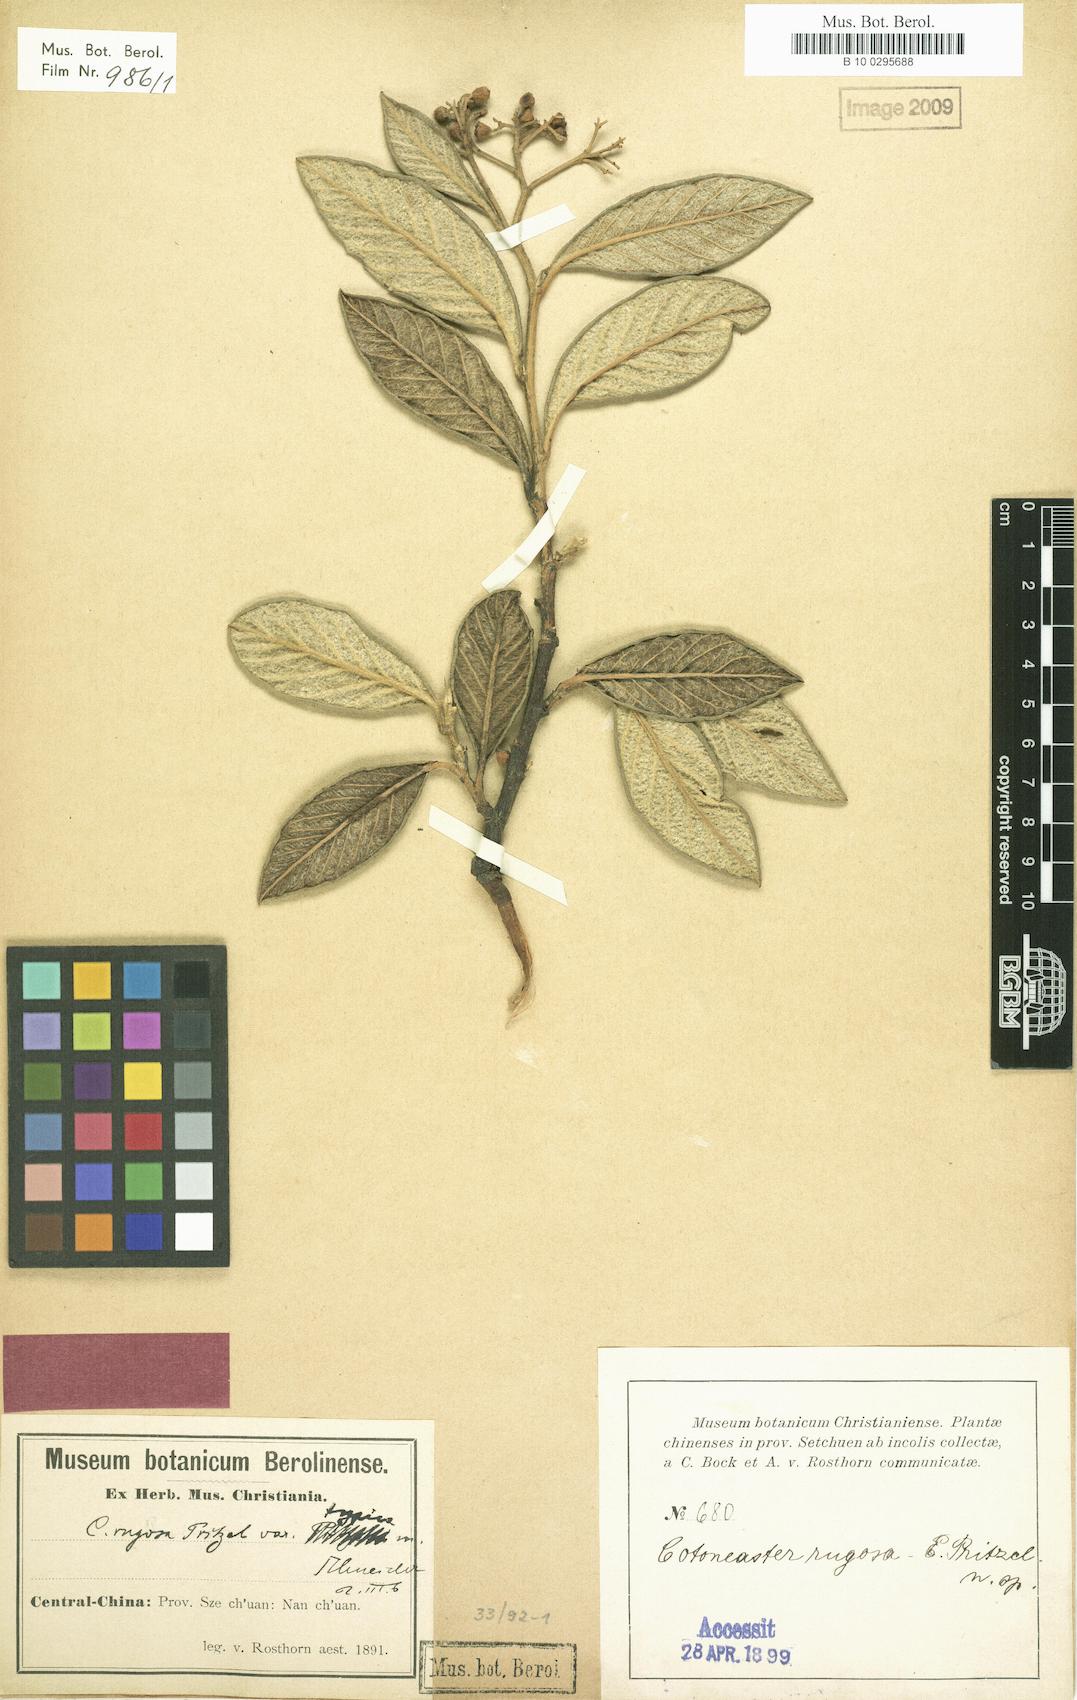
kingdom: Plantae
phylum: Tracheophyta
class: Magnoliopsida
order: Rosales
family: Rosaceae
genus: Cotoneaster
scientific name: Cotoneaster salicifolius
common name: Willow-leaved cotoneaster
